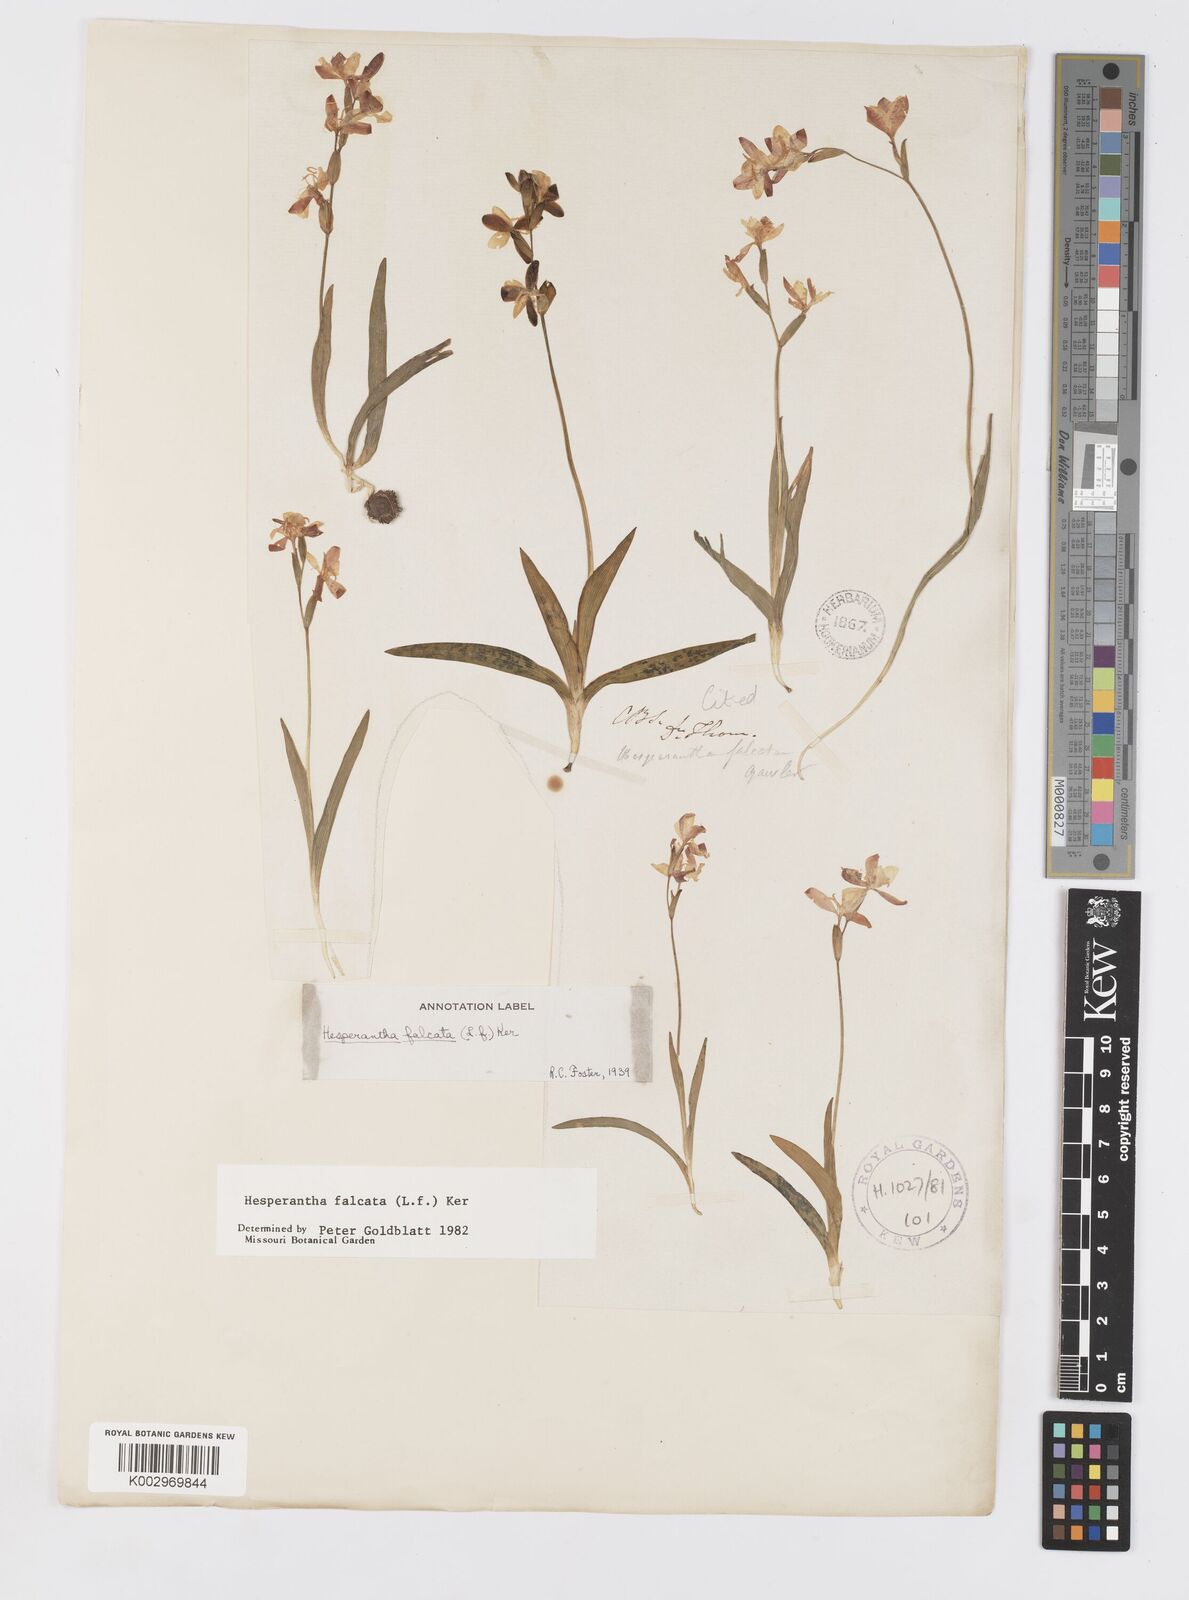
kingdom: Plantae
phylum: Tracheophyta
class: Liliopsida
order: Asparagales
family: Iridaceae
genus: Hesperantha
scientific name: Hesperantha falcata
